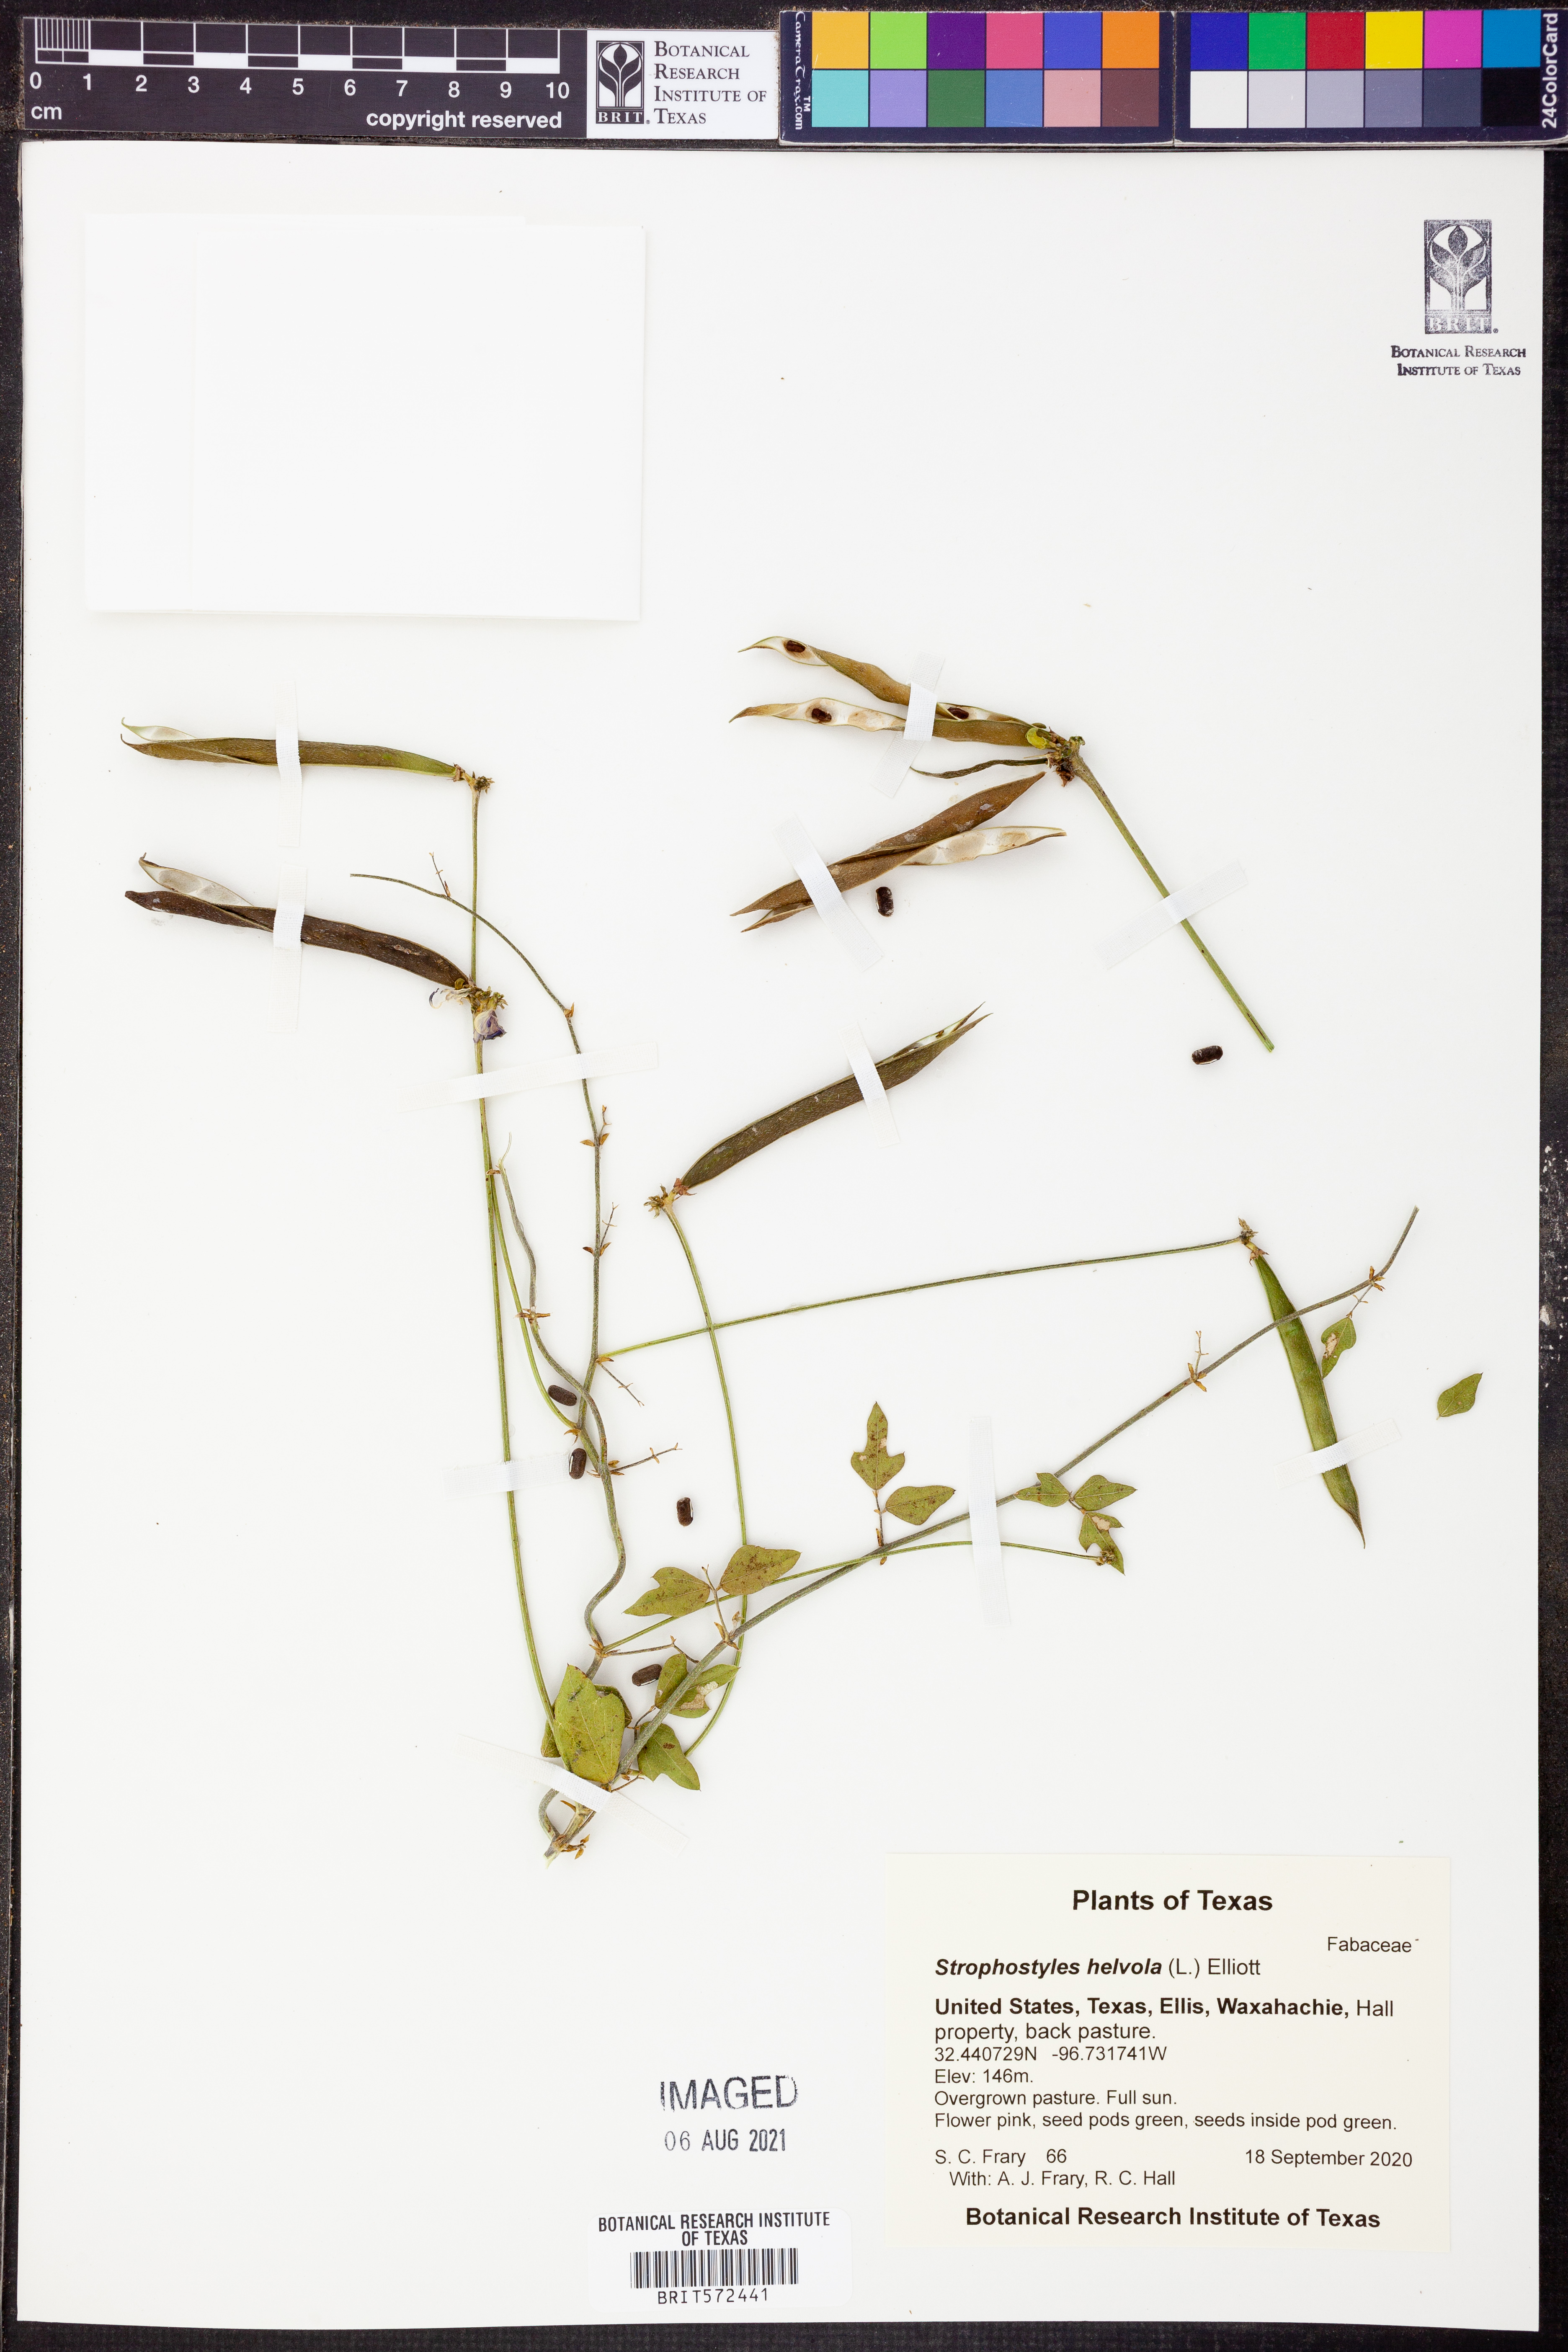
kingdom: Plantae
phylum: Tracheophyta
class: Magnoliopsida
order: Fabales
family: Fabaceae
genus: Strophostyles
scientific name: Strophostyles helvola
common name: Trailing wild bean
